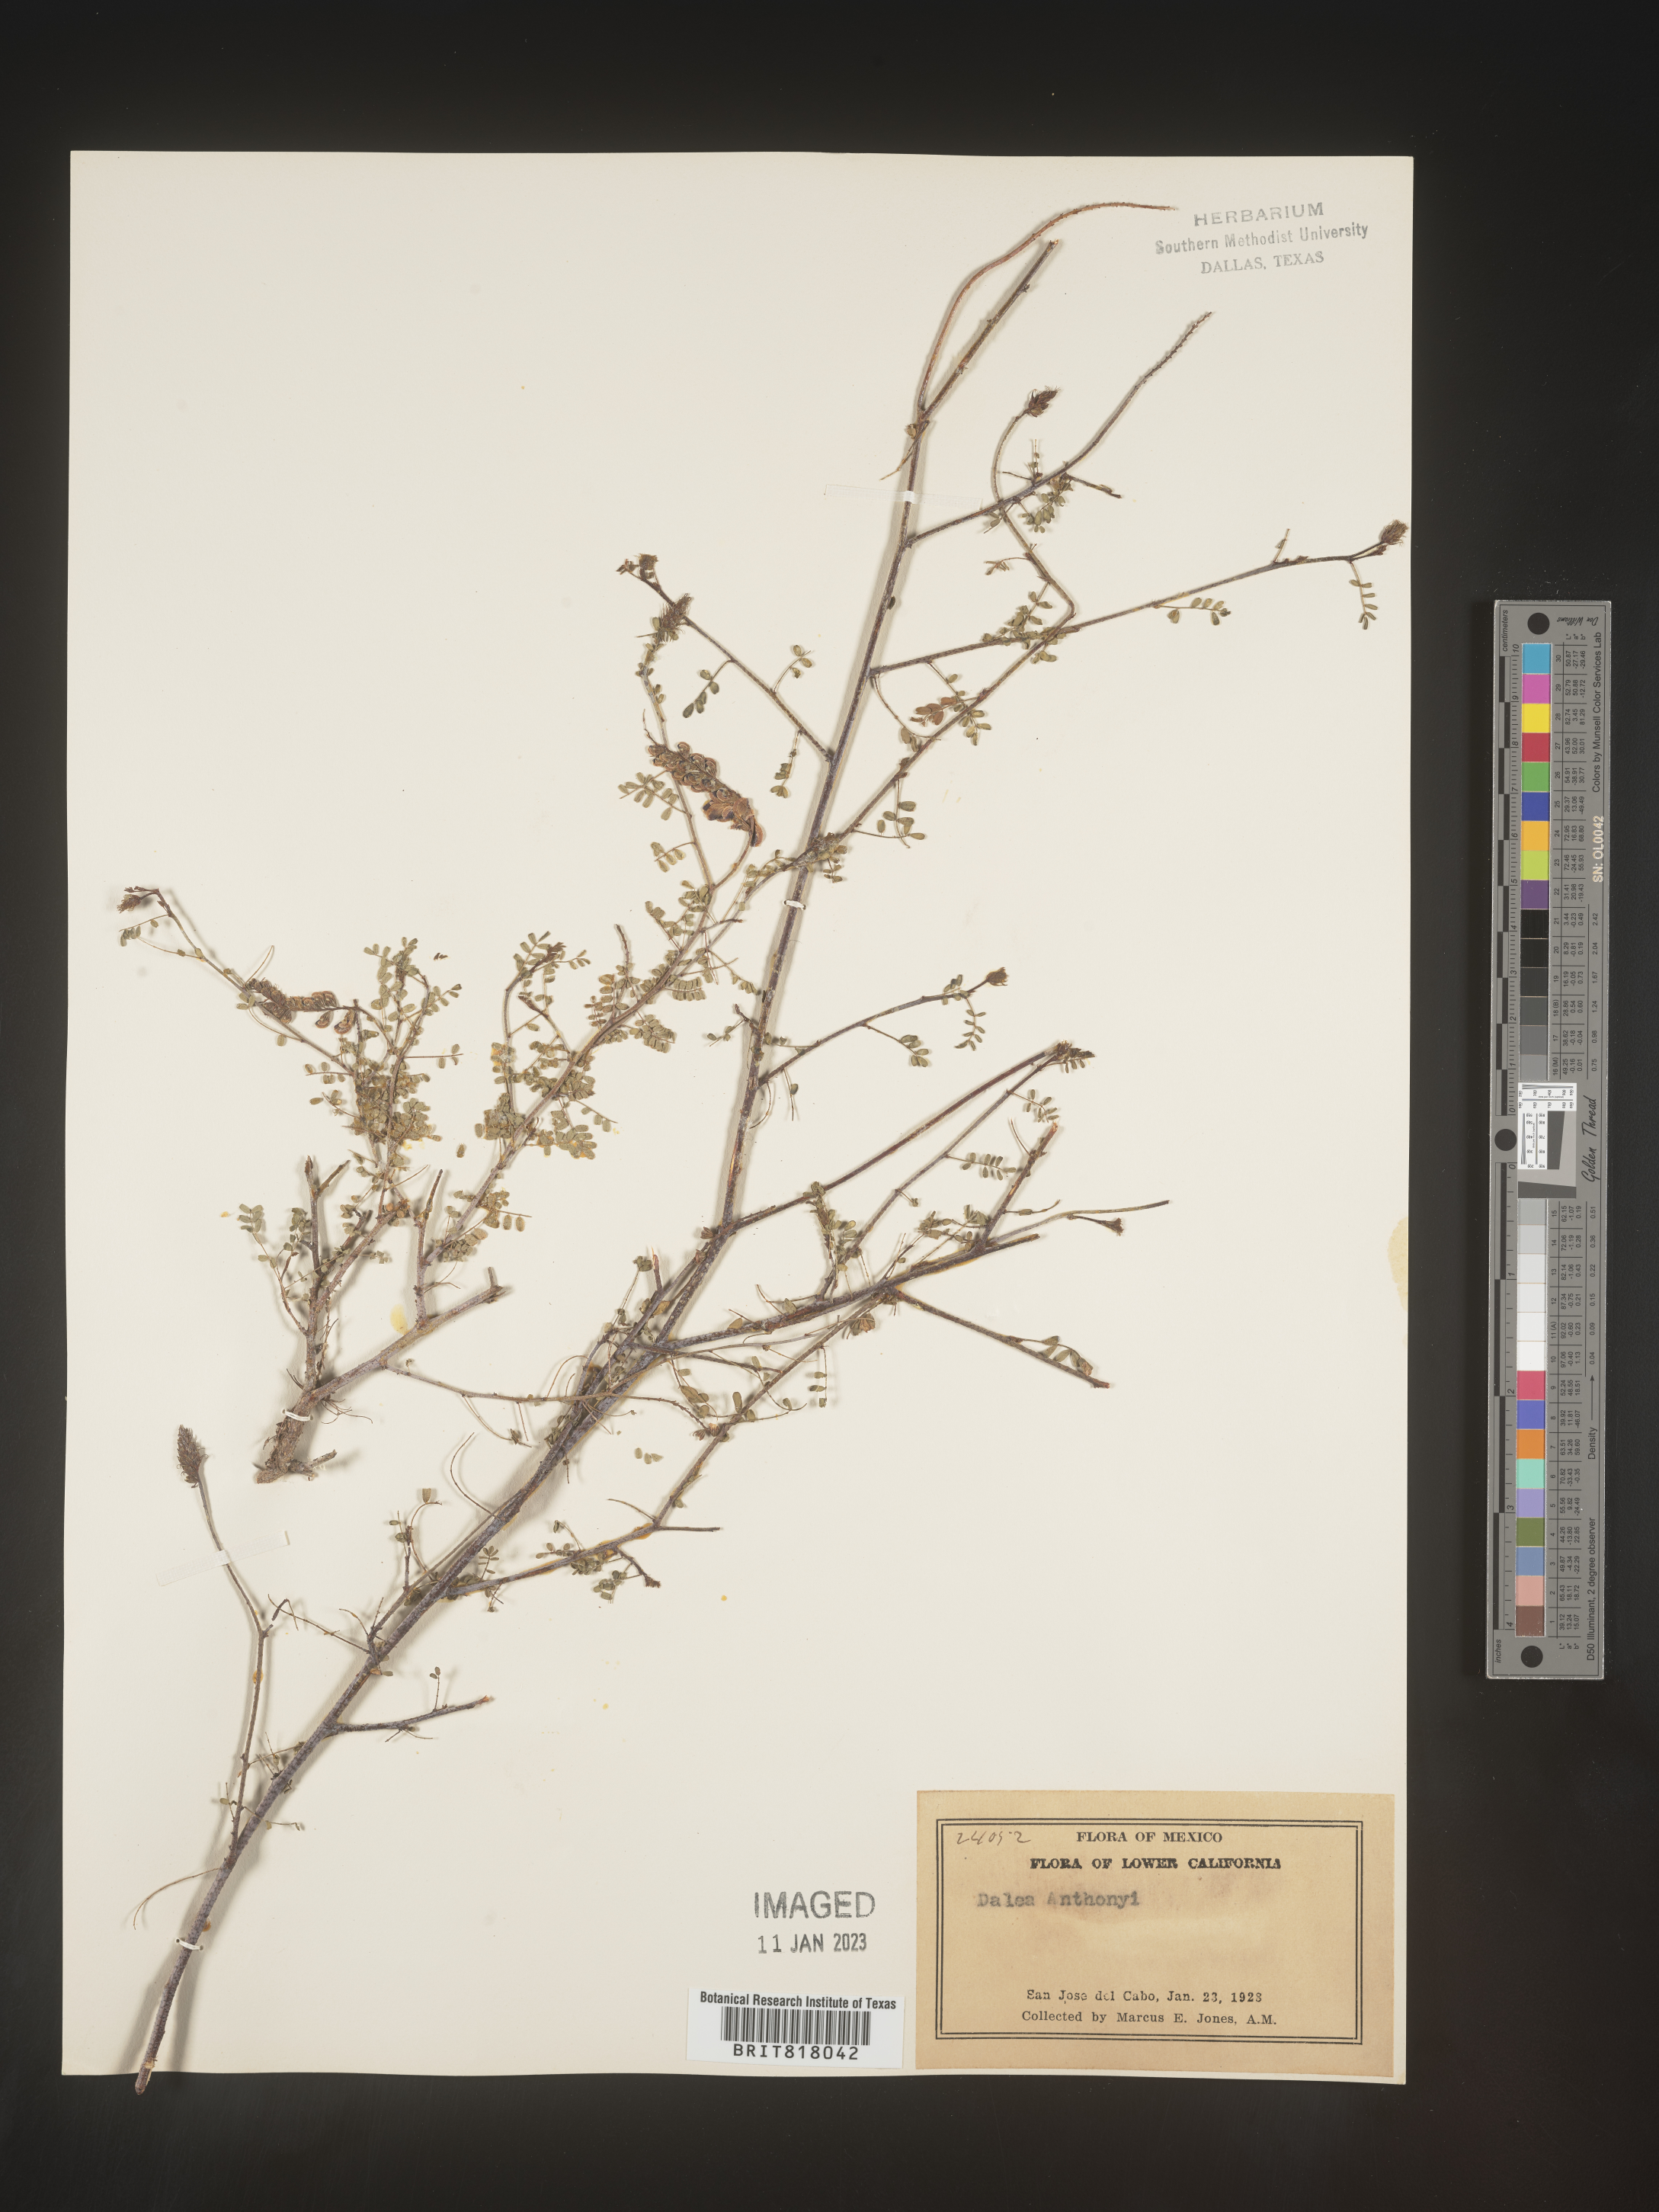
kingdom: Plantae
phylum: Tracheophyta
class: Magnoliopsida
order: Fabales
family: Fabaceae
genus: Dalea
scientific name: Dalea
